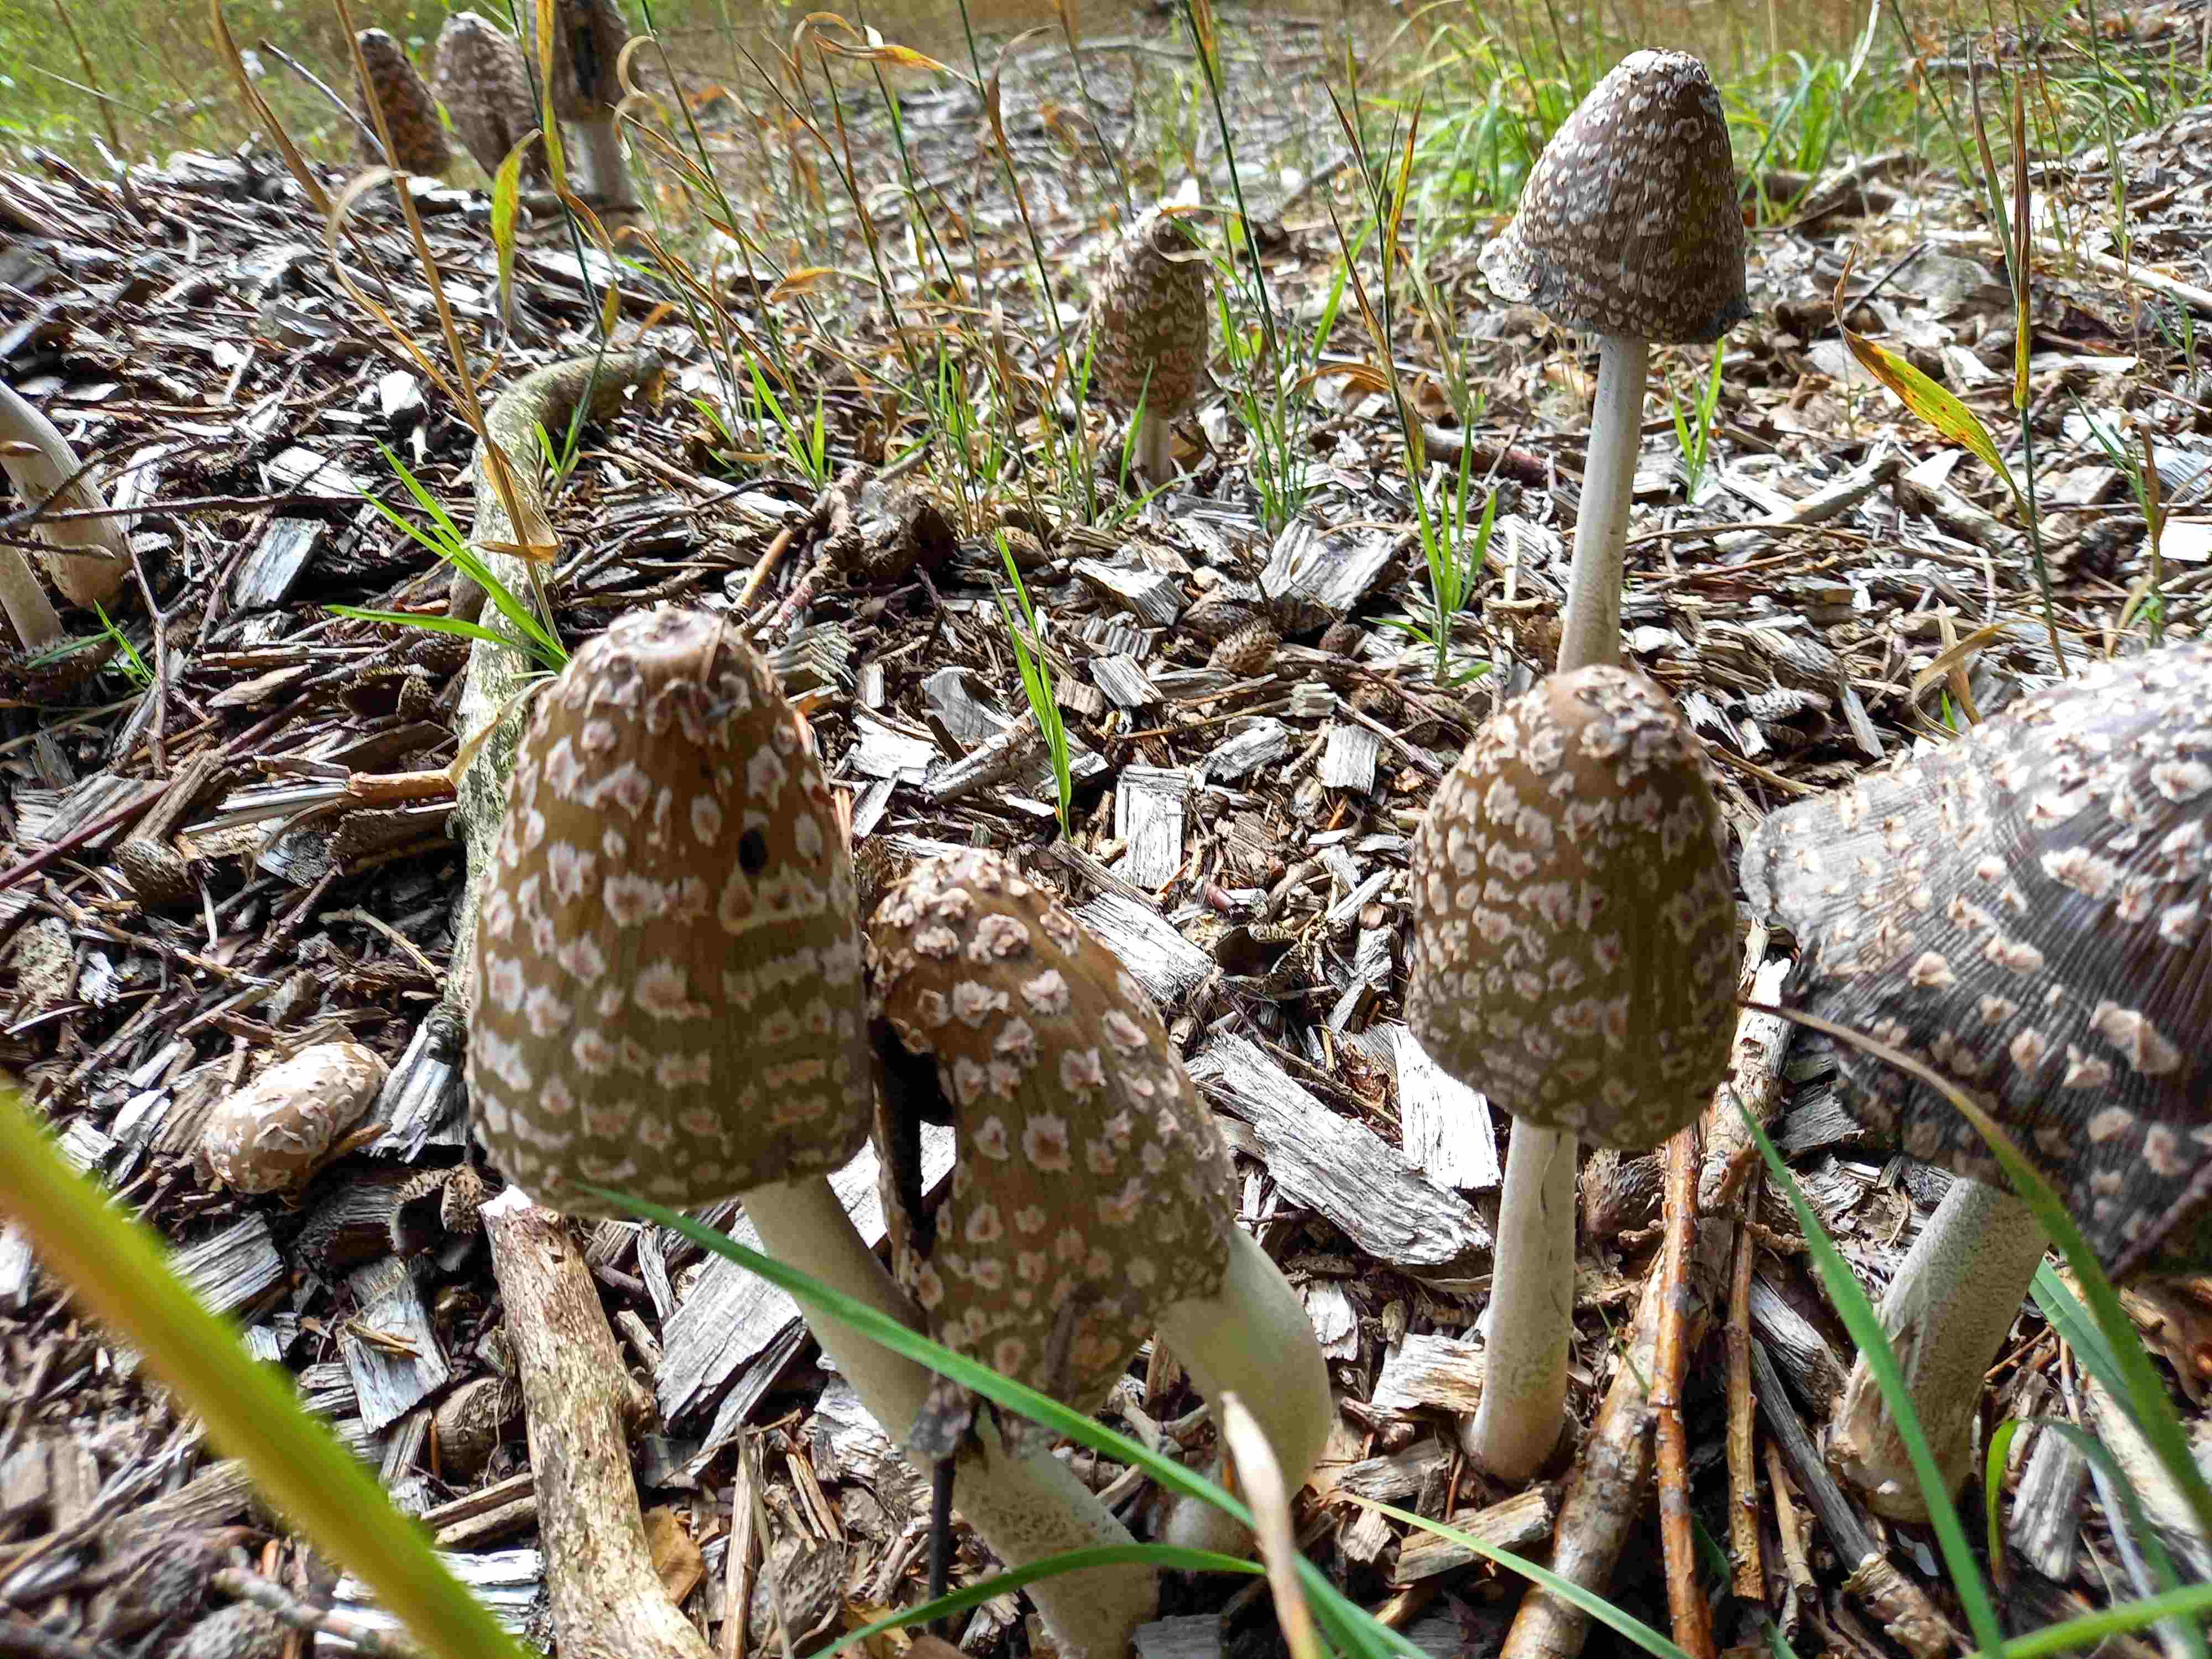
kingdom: Fungi
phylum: Basidiomycota
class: Agaricomycetes
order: Agaricales
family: Psathyrellaceae
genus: Coprinopsis
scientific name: Coprinopsis picacea
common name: skade-blækhat
